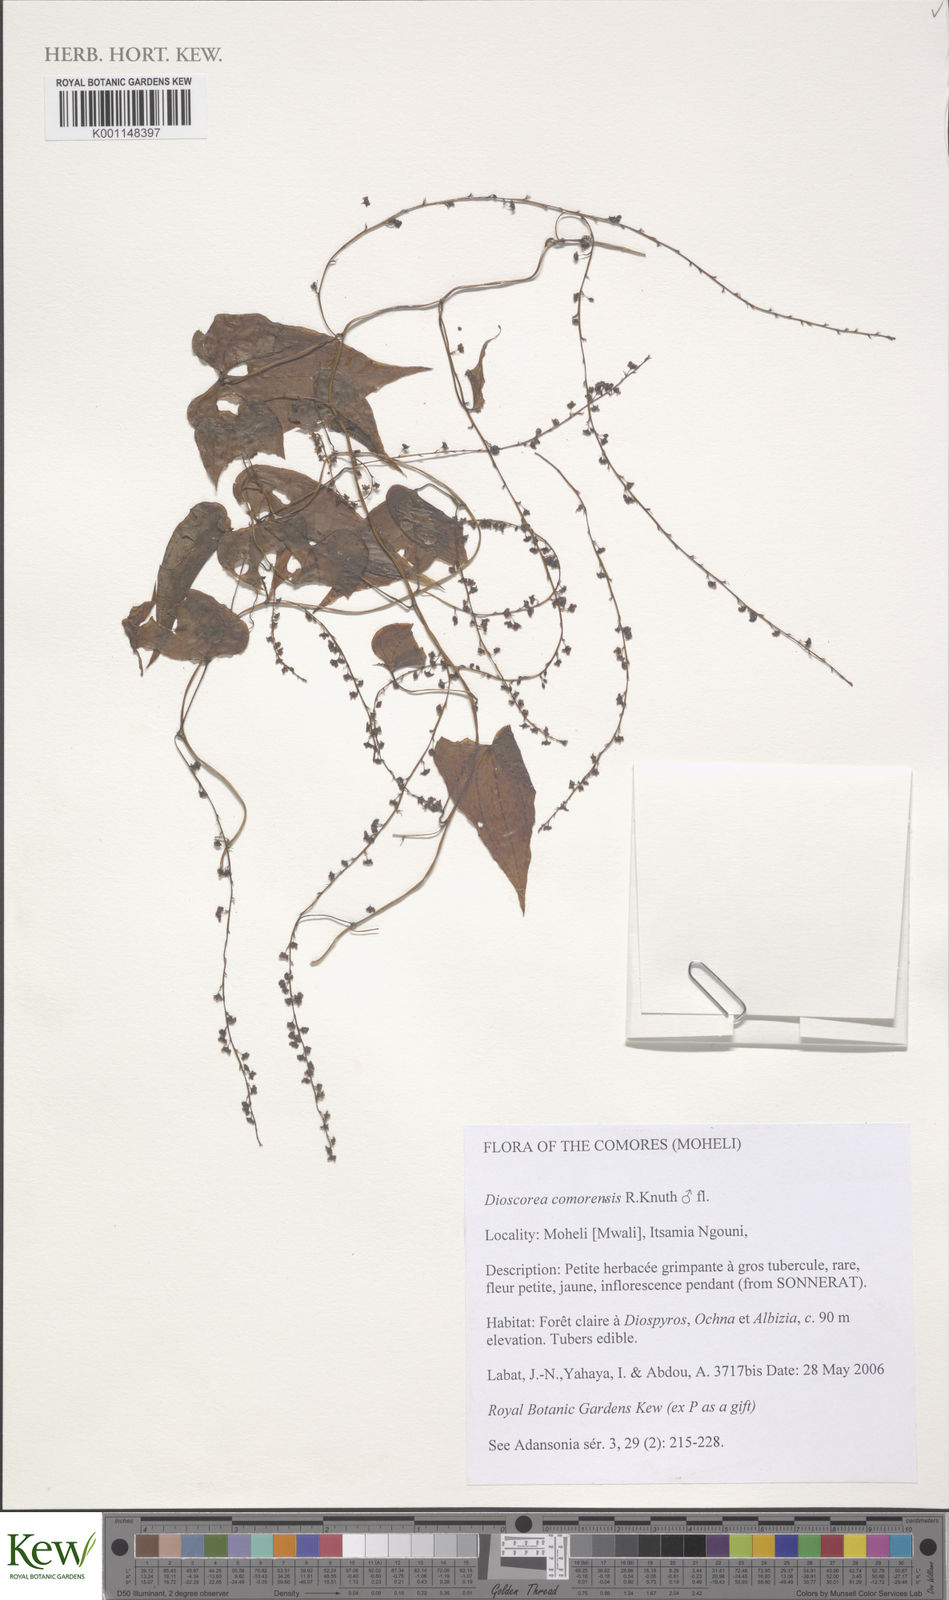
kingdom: Plantae
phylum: Tracheophyta
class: Liliopsida
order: Dioscoreales
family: Dioscoreaceae
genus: Dioscorea
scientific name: Dioscorea comorensis
